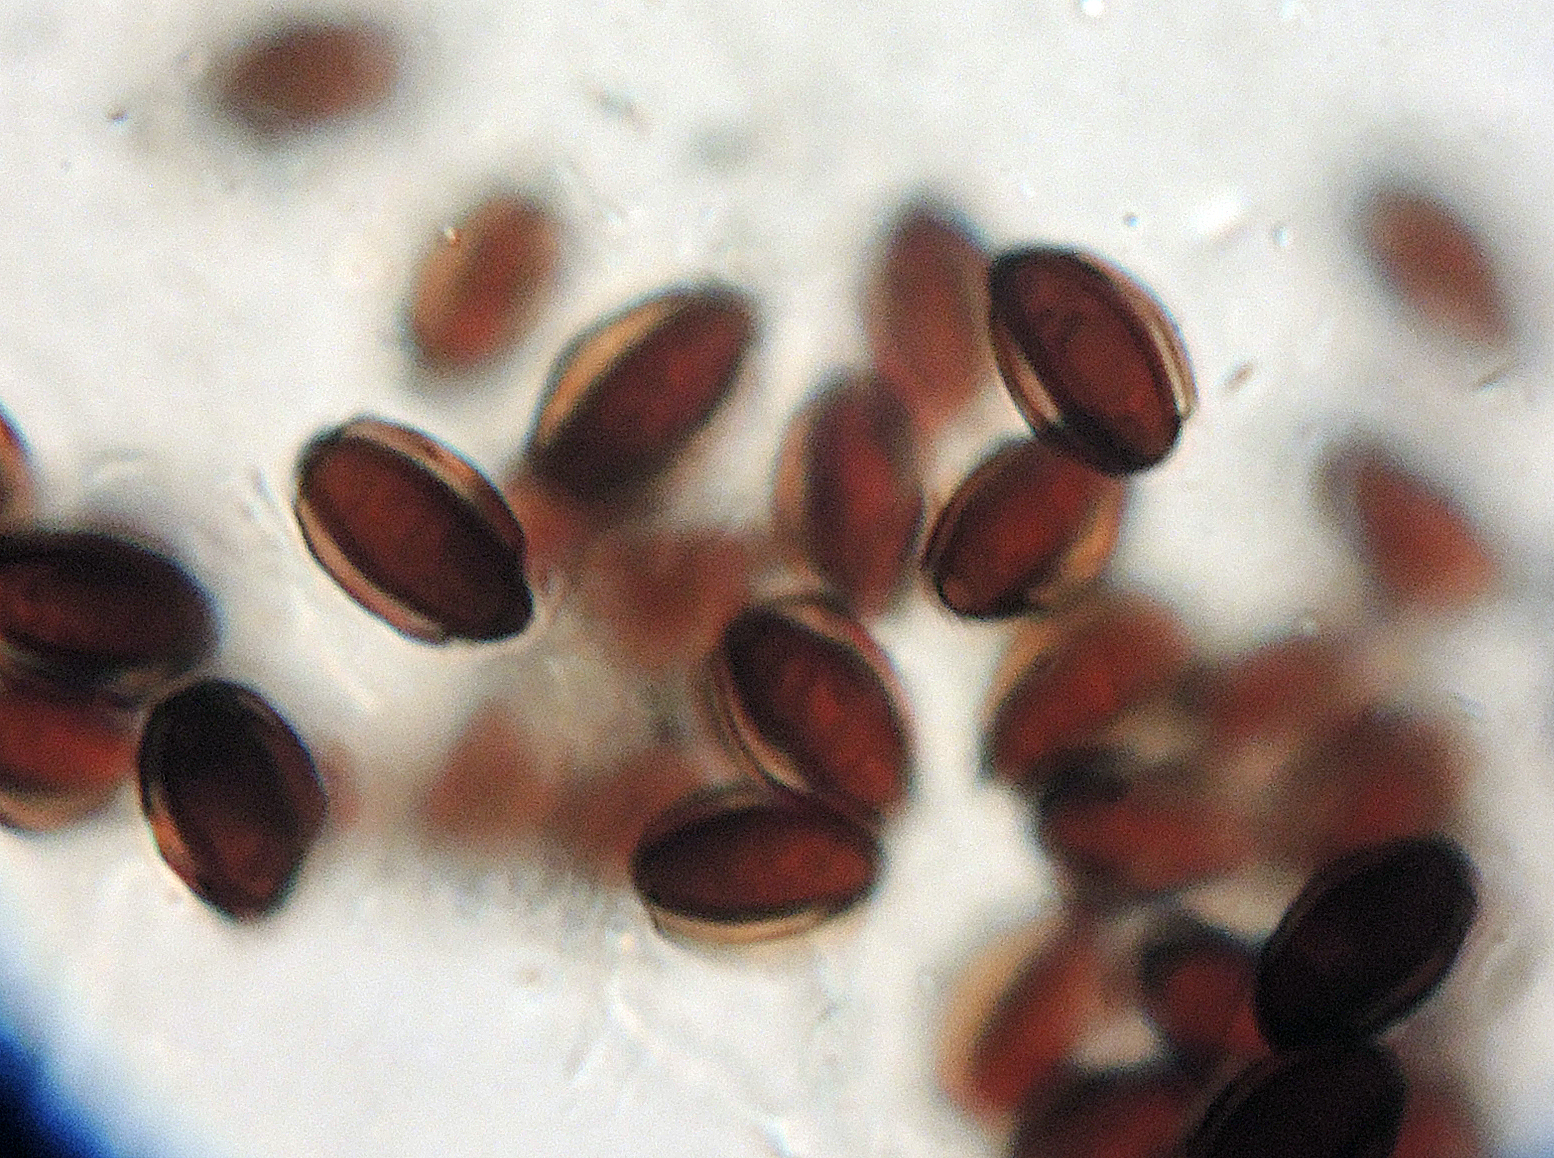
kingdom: Fungi
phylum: Basidiomycota
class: Agaricomycetes
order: Agaricales
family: Psathyrellaceae
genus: Coprinopsis
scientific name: Coprinopsis semitalis
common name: gråpudret blækhat
